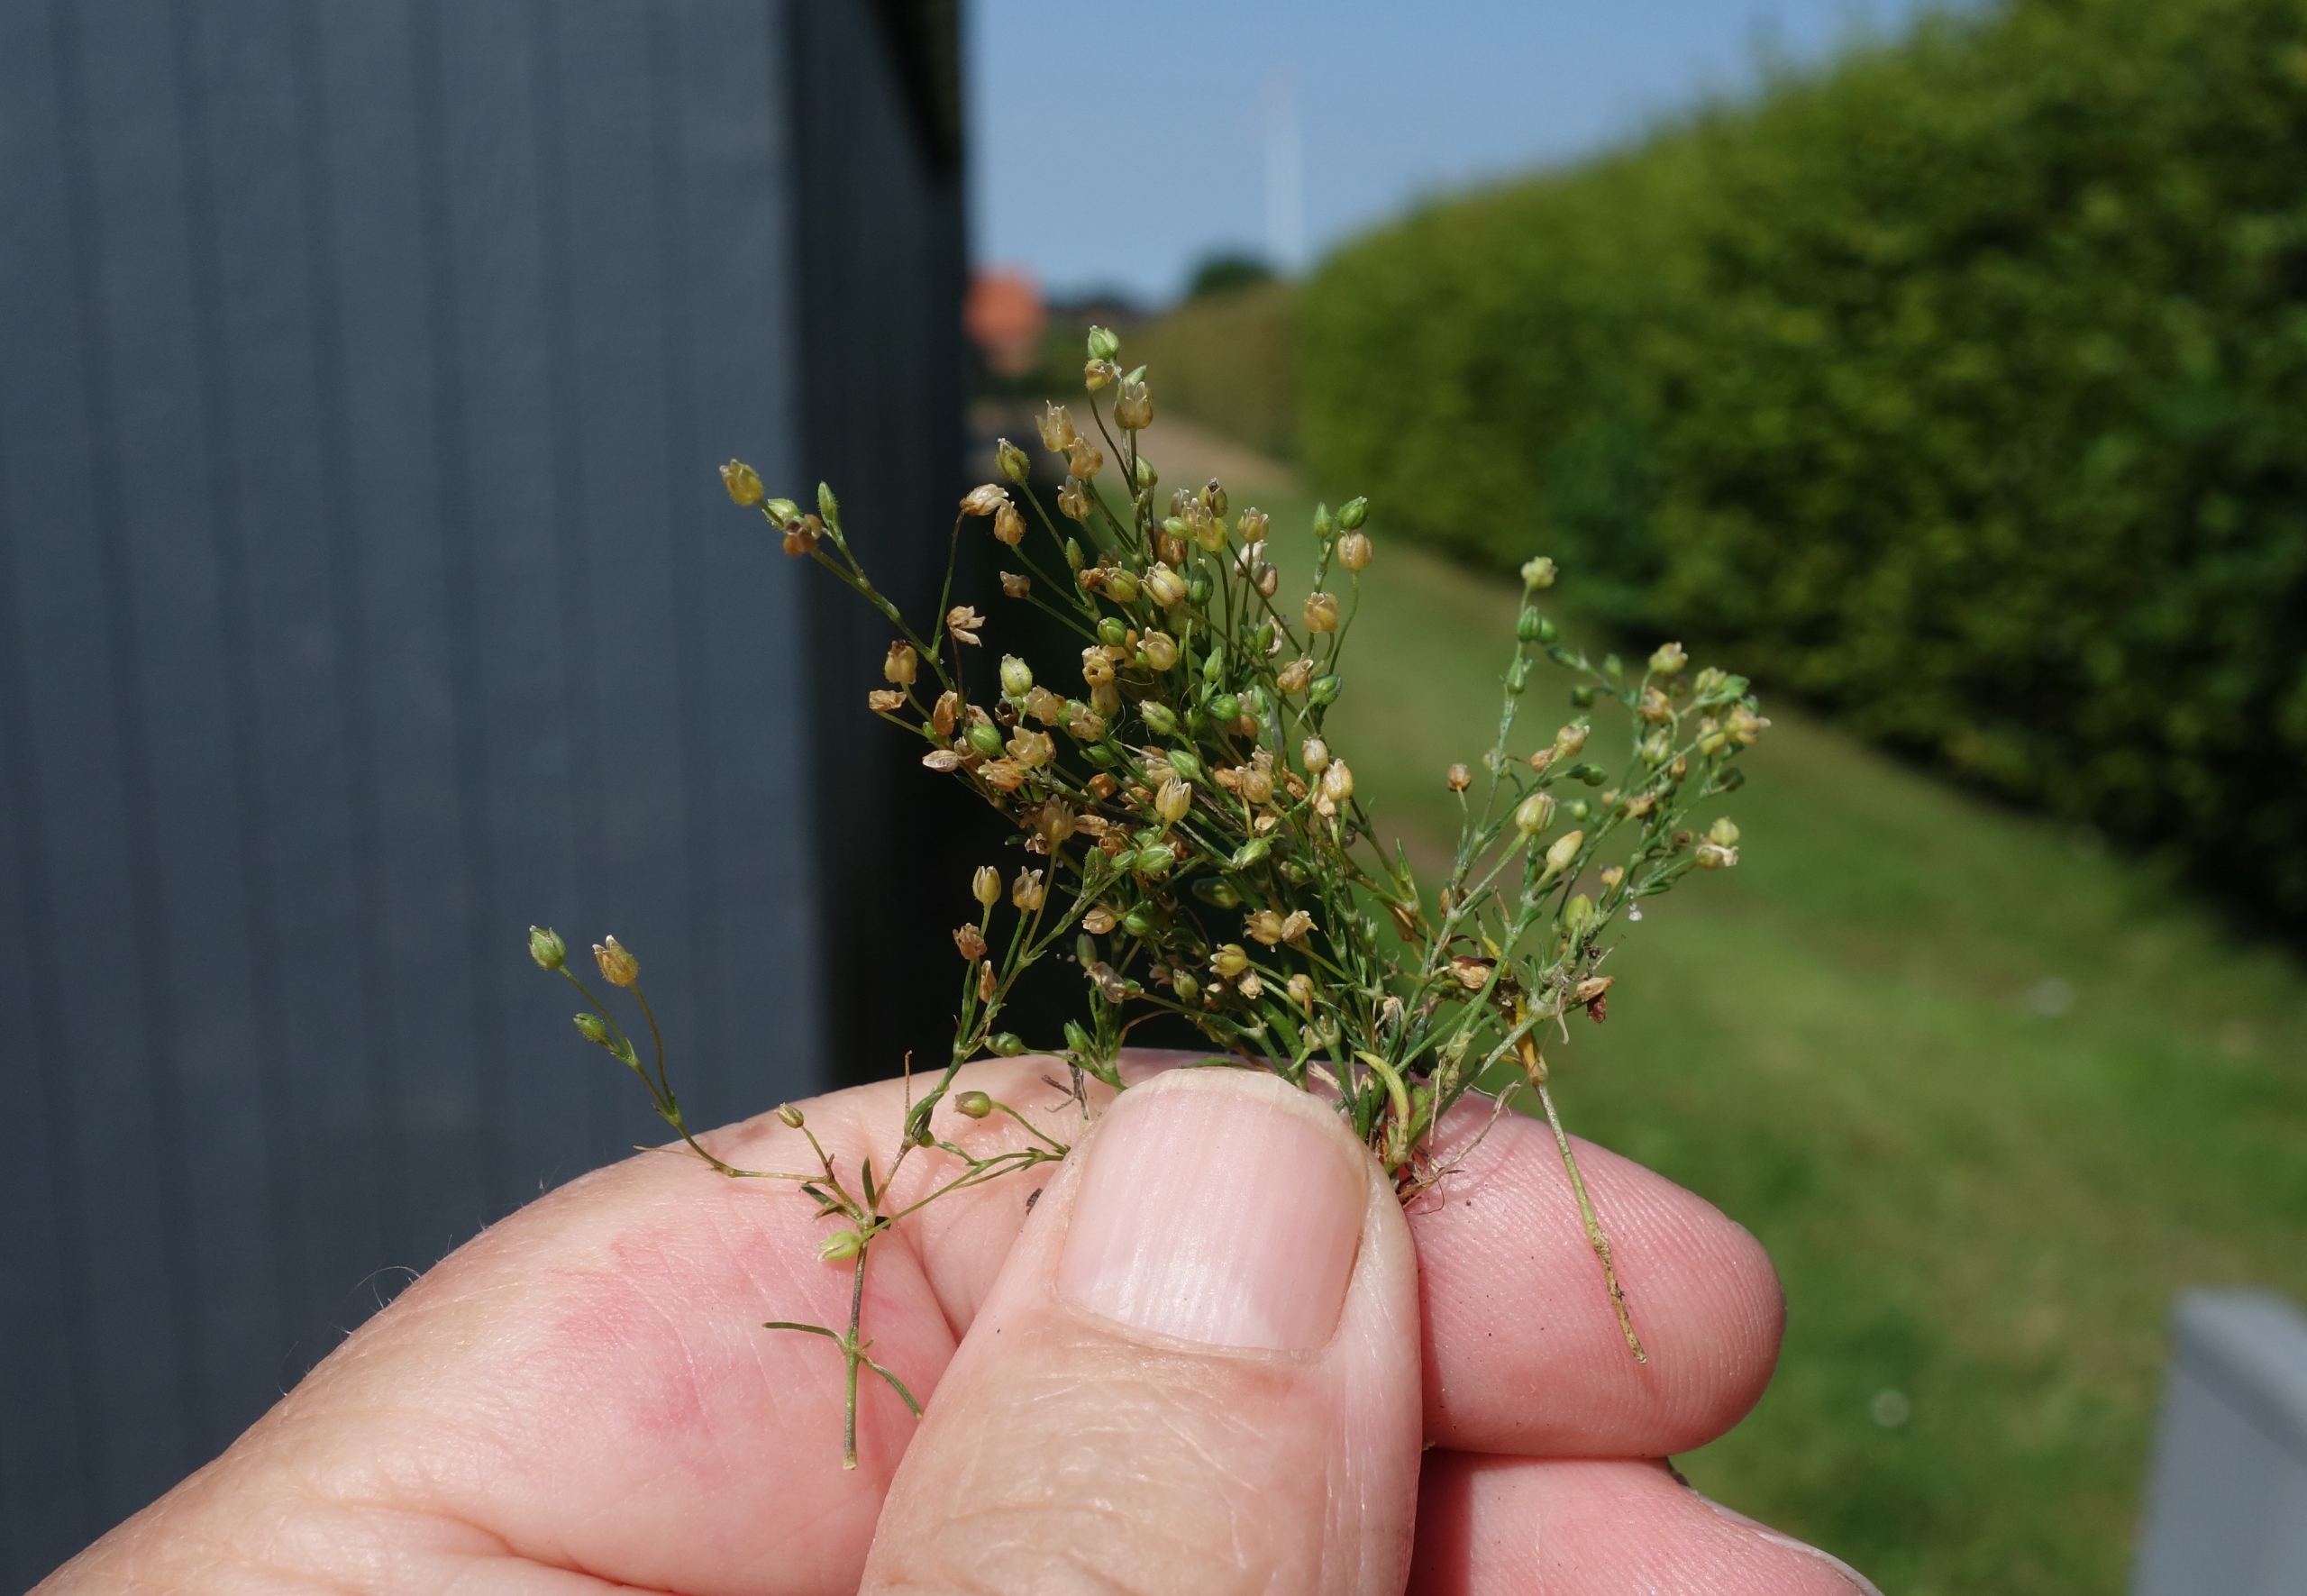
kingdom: Plantae
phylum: Tracheophyta
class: Magnoliopsida
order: Caryophyllales
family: Caryophyllaceae
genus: Sagina
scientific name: Sagina apetala
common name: Kronløs firling
